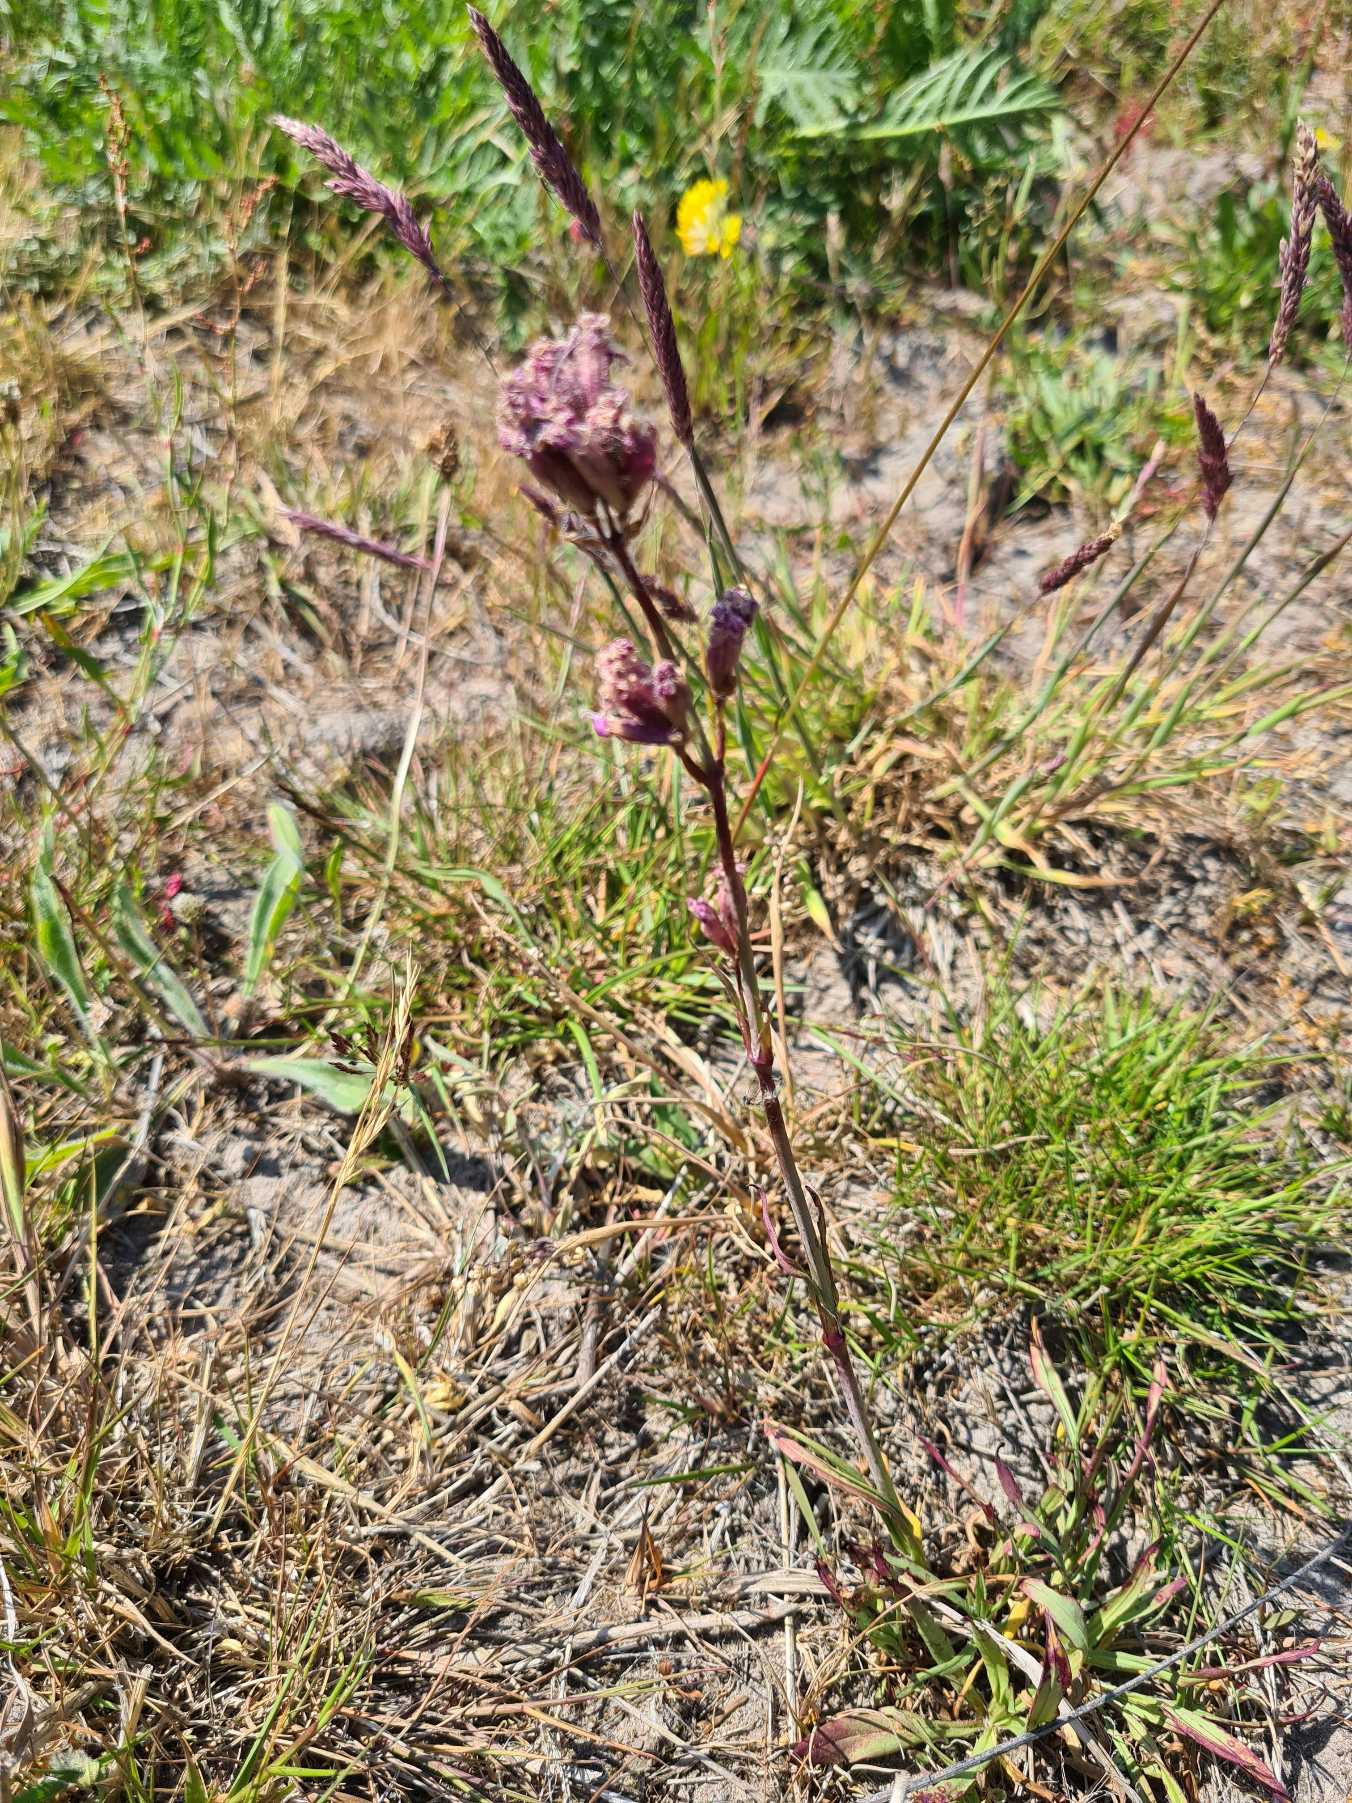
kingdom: Plantae
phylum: Tracheophyta
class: Magnoliopsida
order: Caryophyllales
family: Caryophyllaceae
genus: Viscaria
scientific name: Viscaria vulgaris
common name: Tjærenellike
